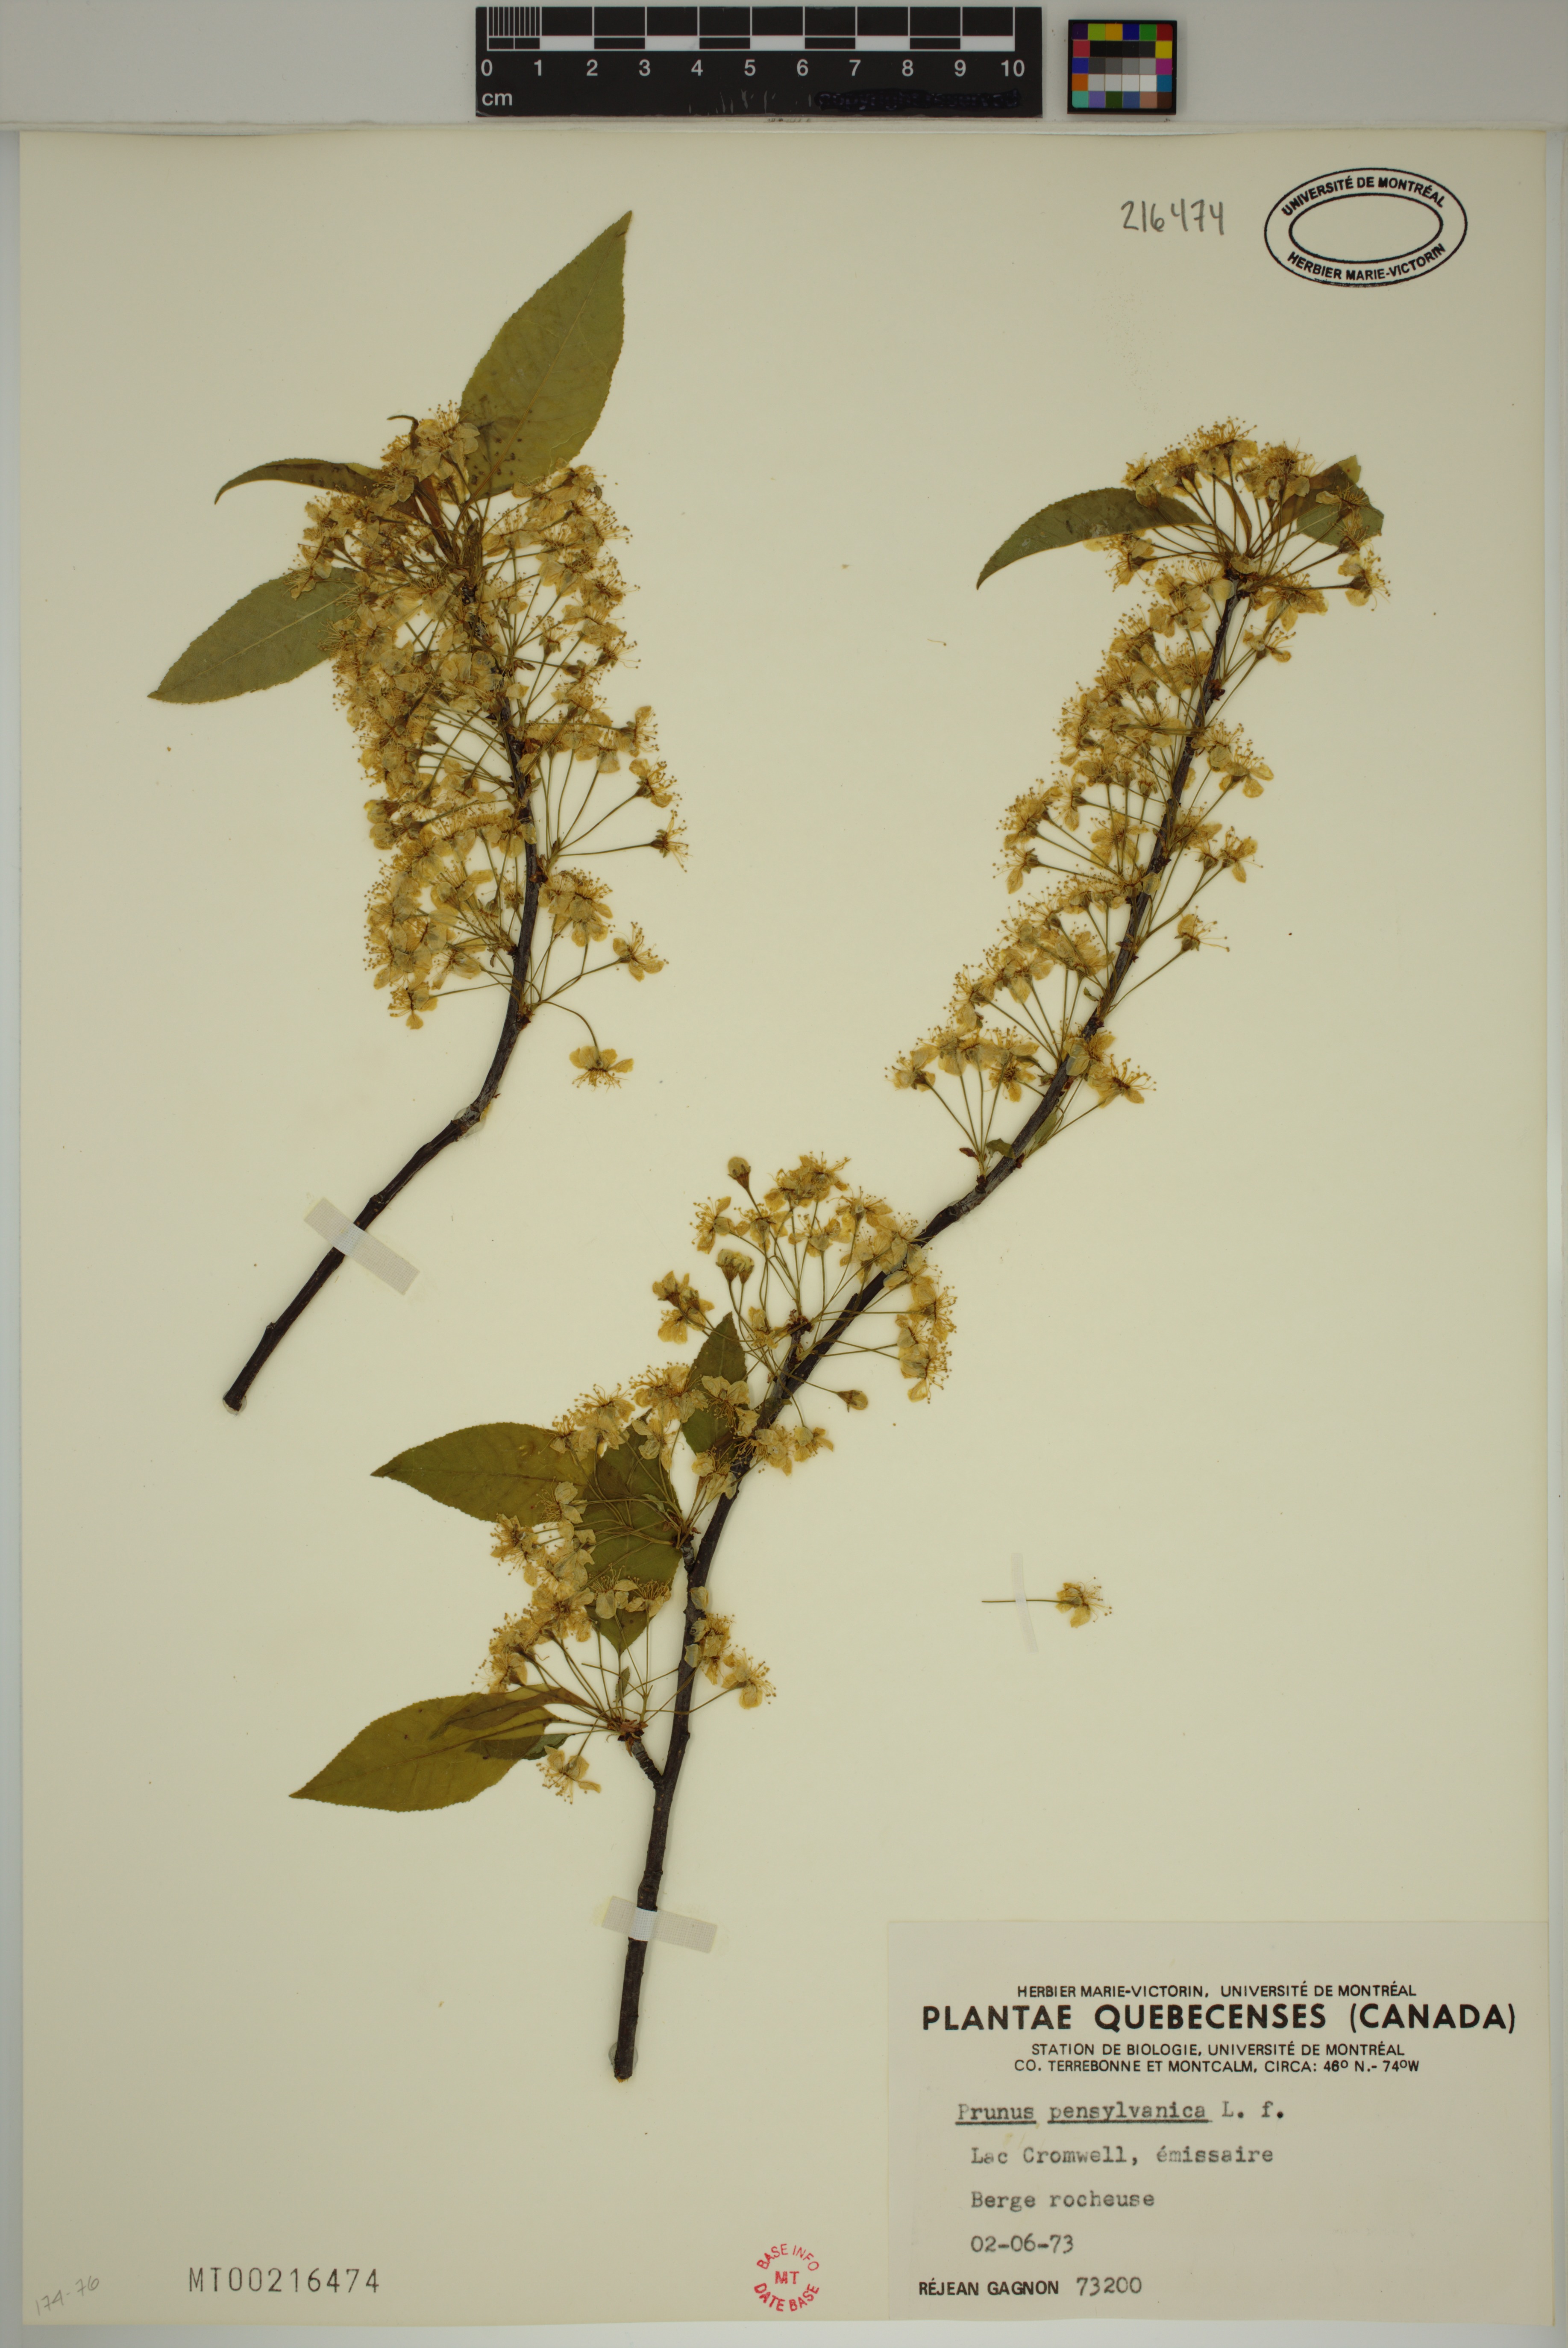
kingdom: Plantae
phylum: Tracheophyta
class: Magnoliopsida
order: Rosales
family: Rosaceae
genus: Prunus
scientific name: Prunus pensylvanica
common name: Pin cherry
